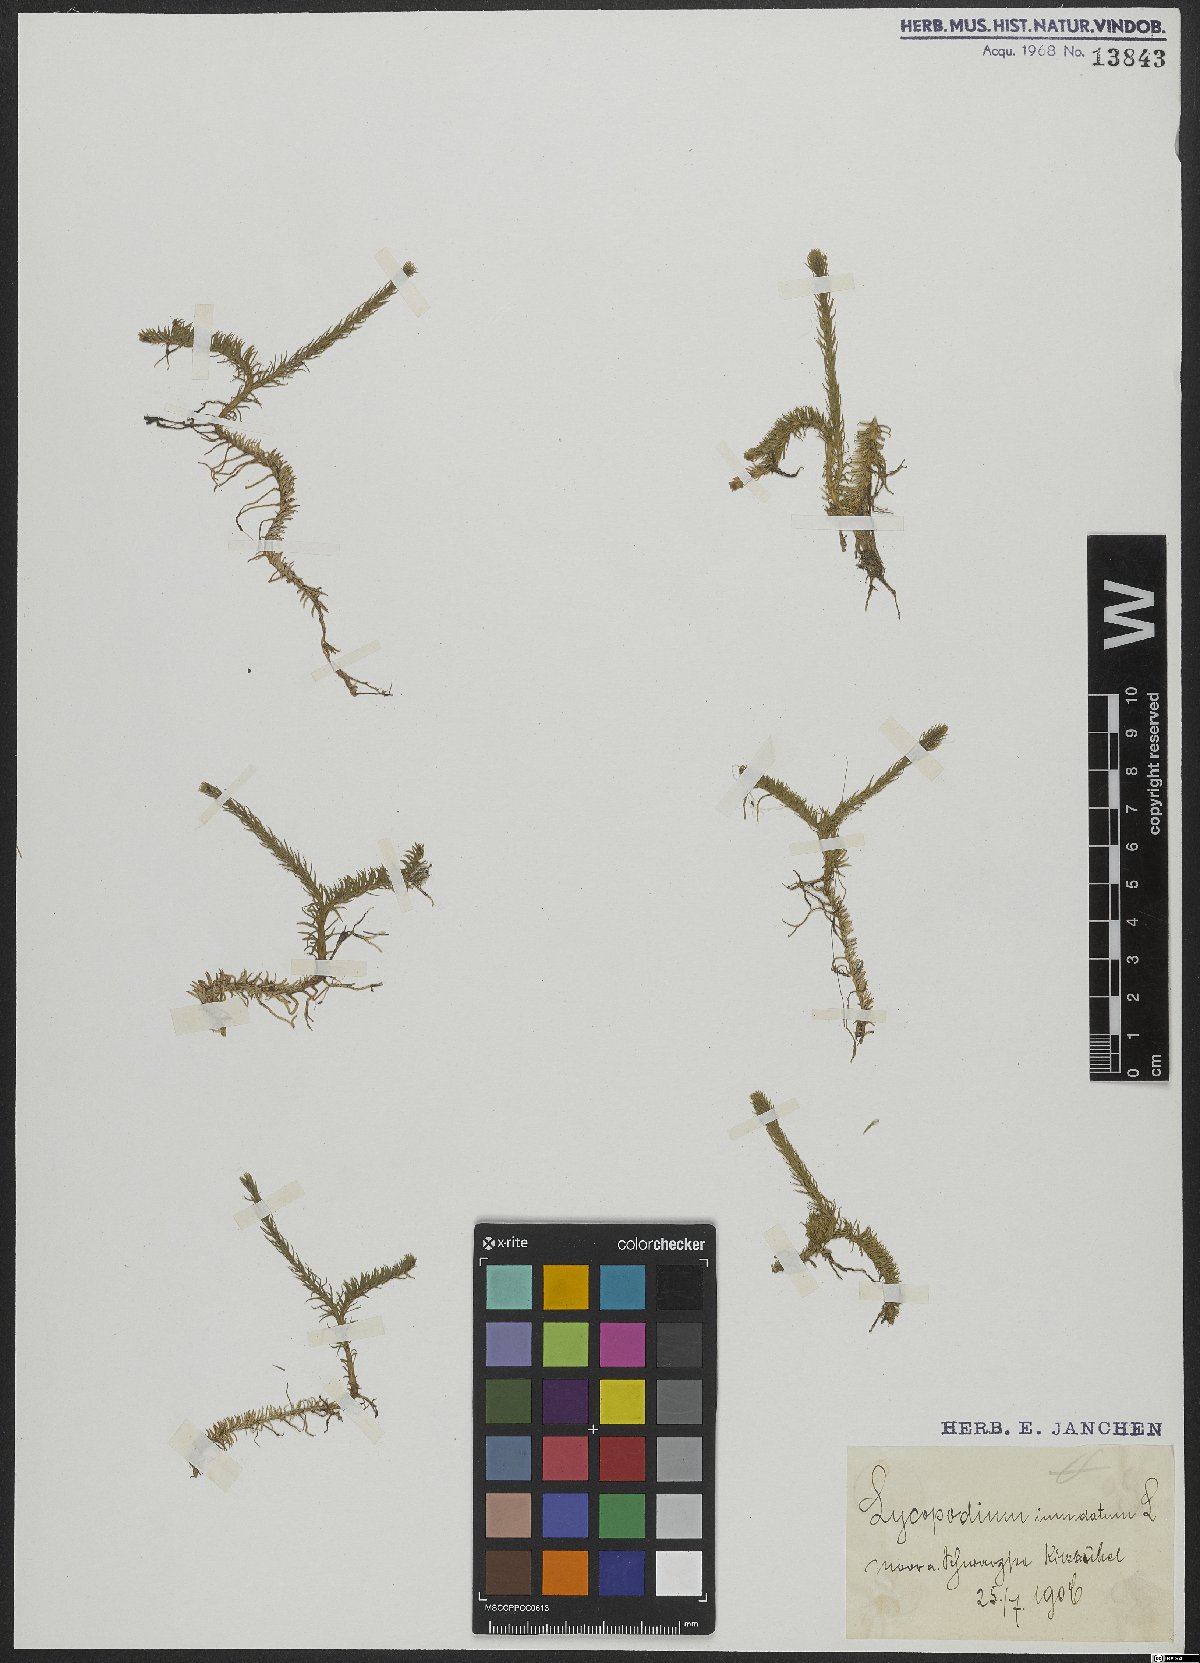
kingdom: Plantae
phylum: Tracheophyta
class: Lycopodiopsida
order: Lycopodiales
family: Lycopodiaceae
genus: Lycopodiella
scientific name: Lycopodiella inundata
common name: Marsh clubmoss
